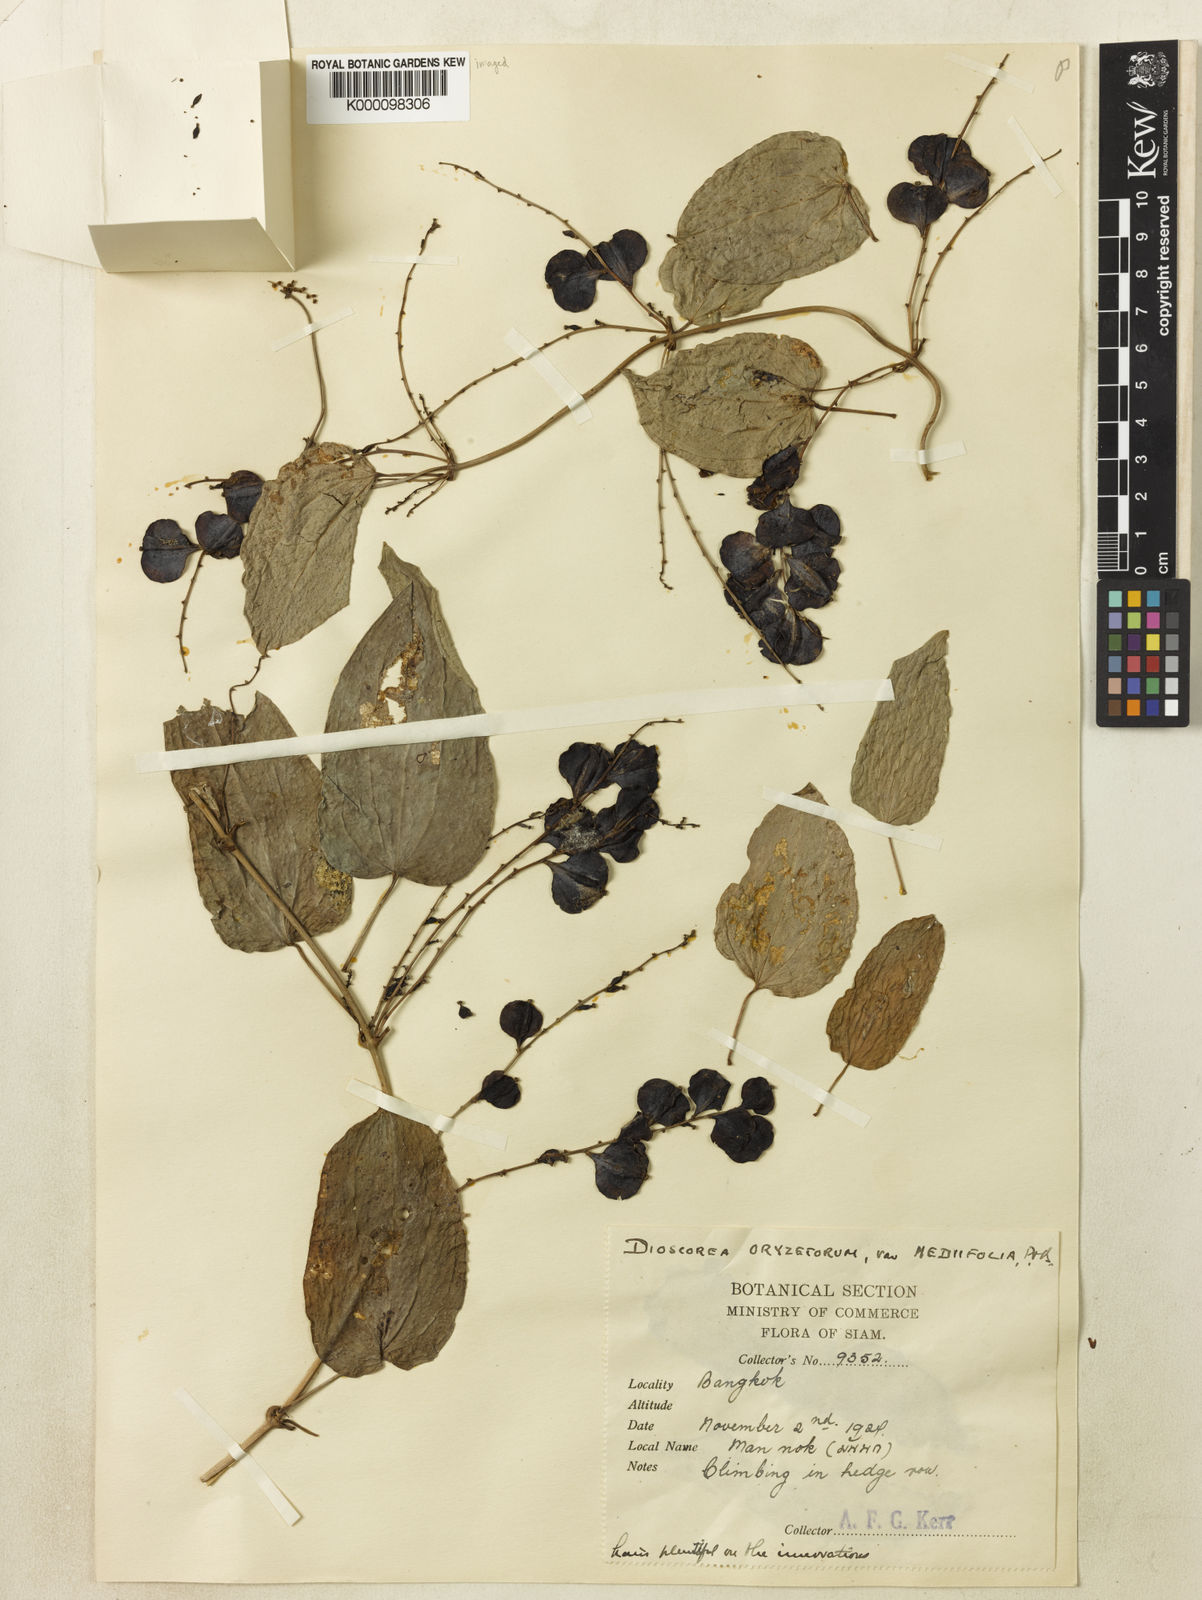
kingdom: Plantae
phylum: Tracheophyta
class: Liliopsida
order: Dioscoreales
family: Dioscoreaceae
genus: Dioscorea
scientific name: Dioscorea oryzetorum
